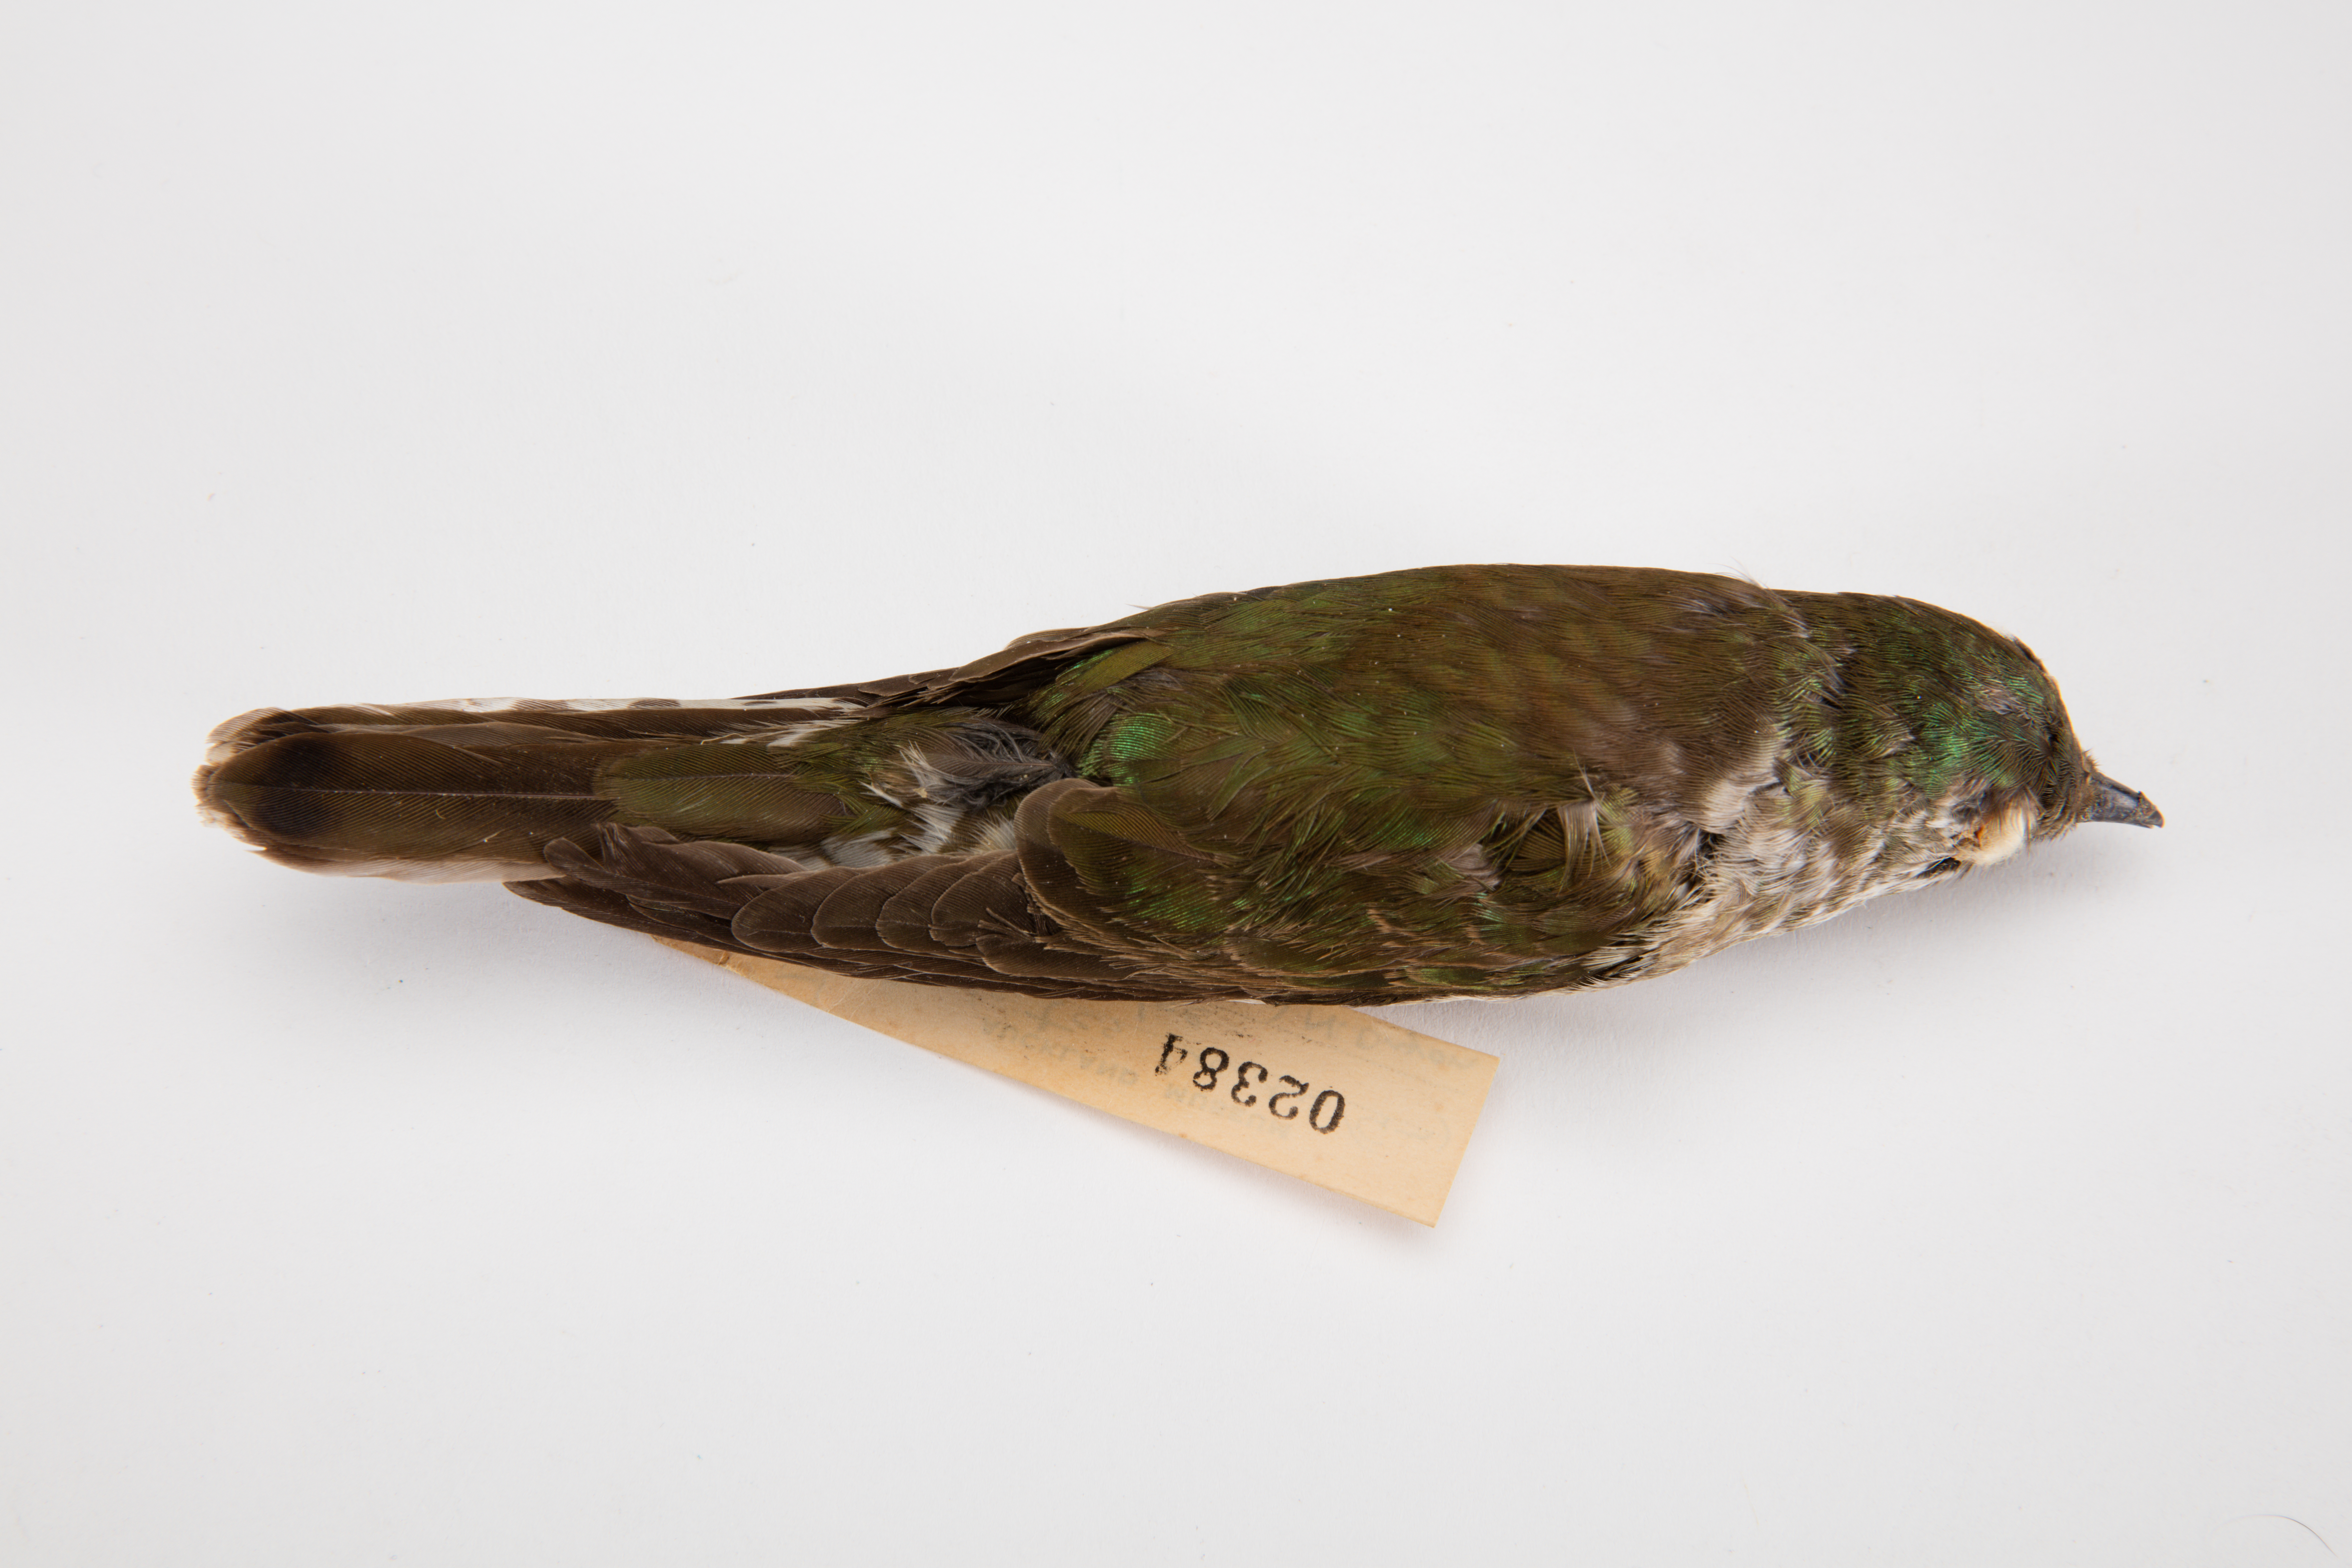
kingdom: Animalia
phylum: Chordata
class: Aves
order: Cuculiformes
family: Cuculidae
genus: Chrysococcyx
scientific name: Chrysococcyx lucidus
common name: Shining bronze cuckoo
